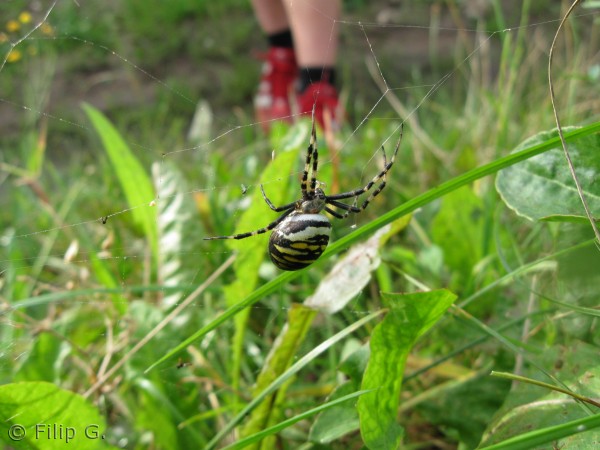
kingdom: Animalia
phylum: Arthropoda
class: Arachnida
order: Araneae
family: Araneidae
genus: Argiope
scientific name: Argiope bruennichi
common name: Hvepseedderkop
